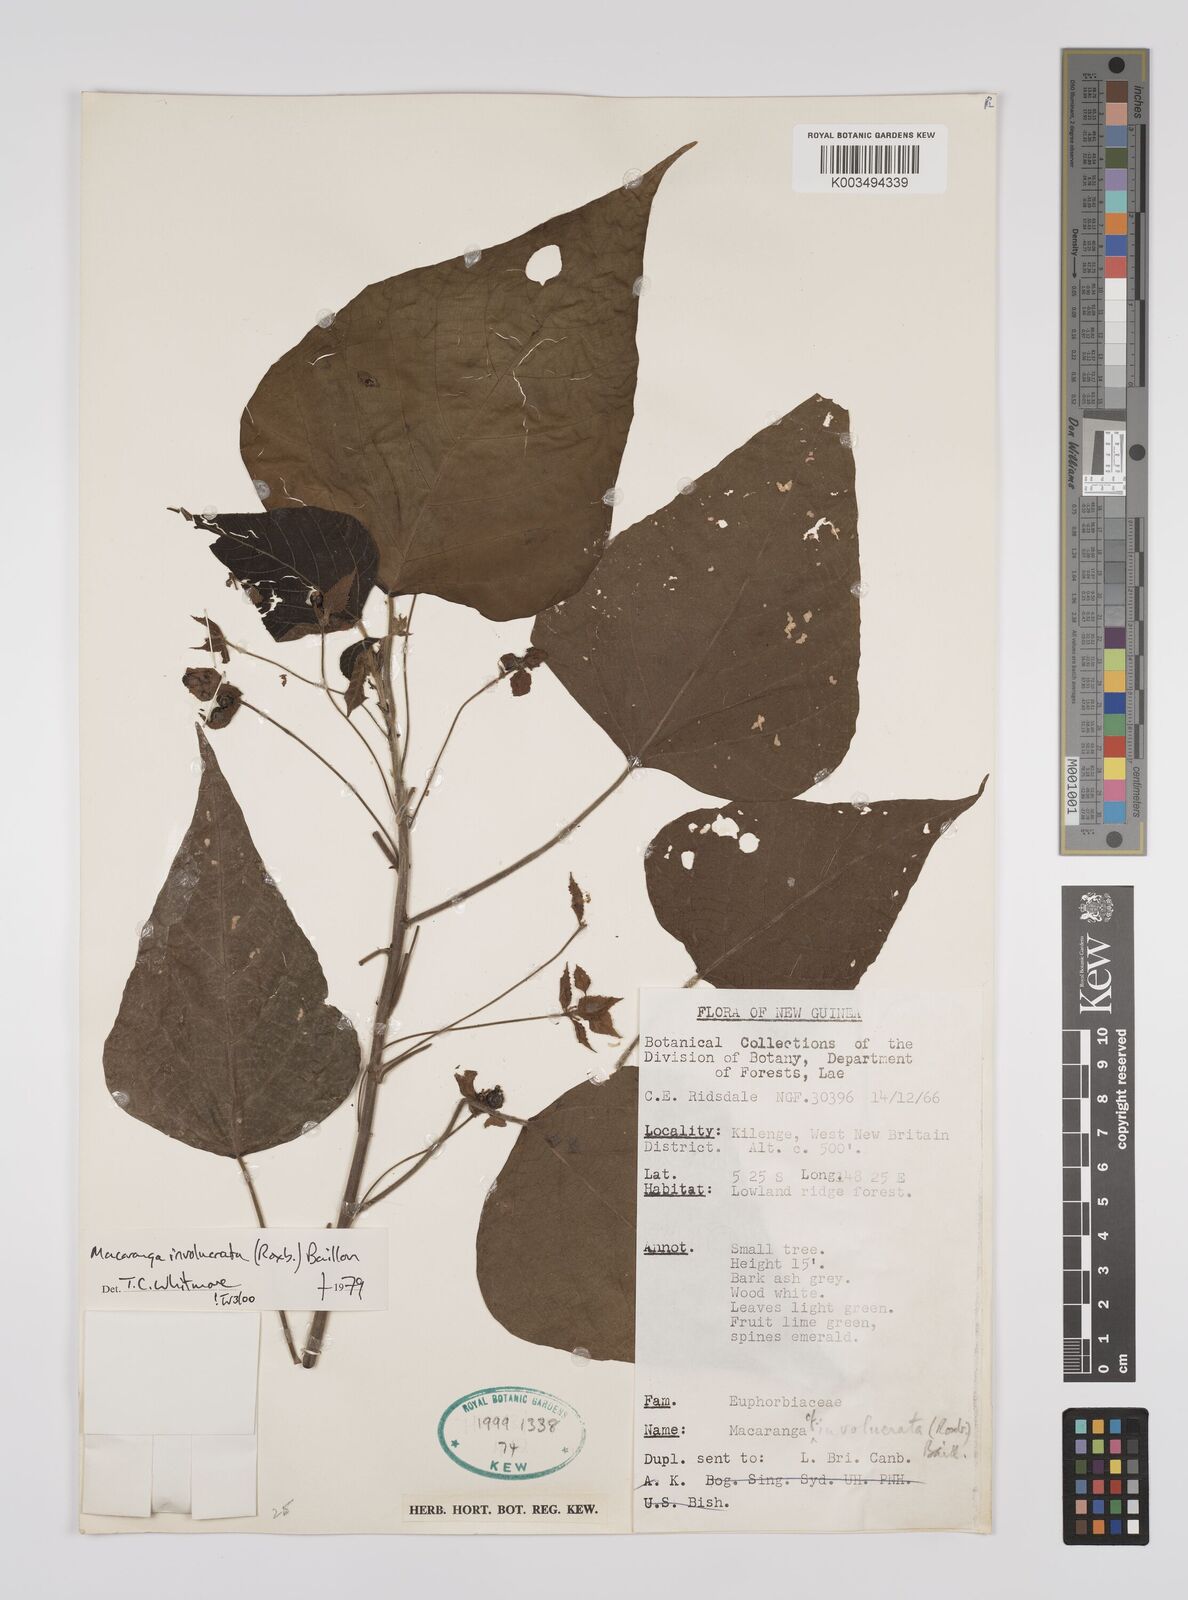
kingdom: Plantae
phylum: Tracheophyta
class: Magnoliopsida
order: Malpighiales
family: Euphorbiaceae
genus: Macaranga
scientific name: Macaranga involucrata
